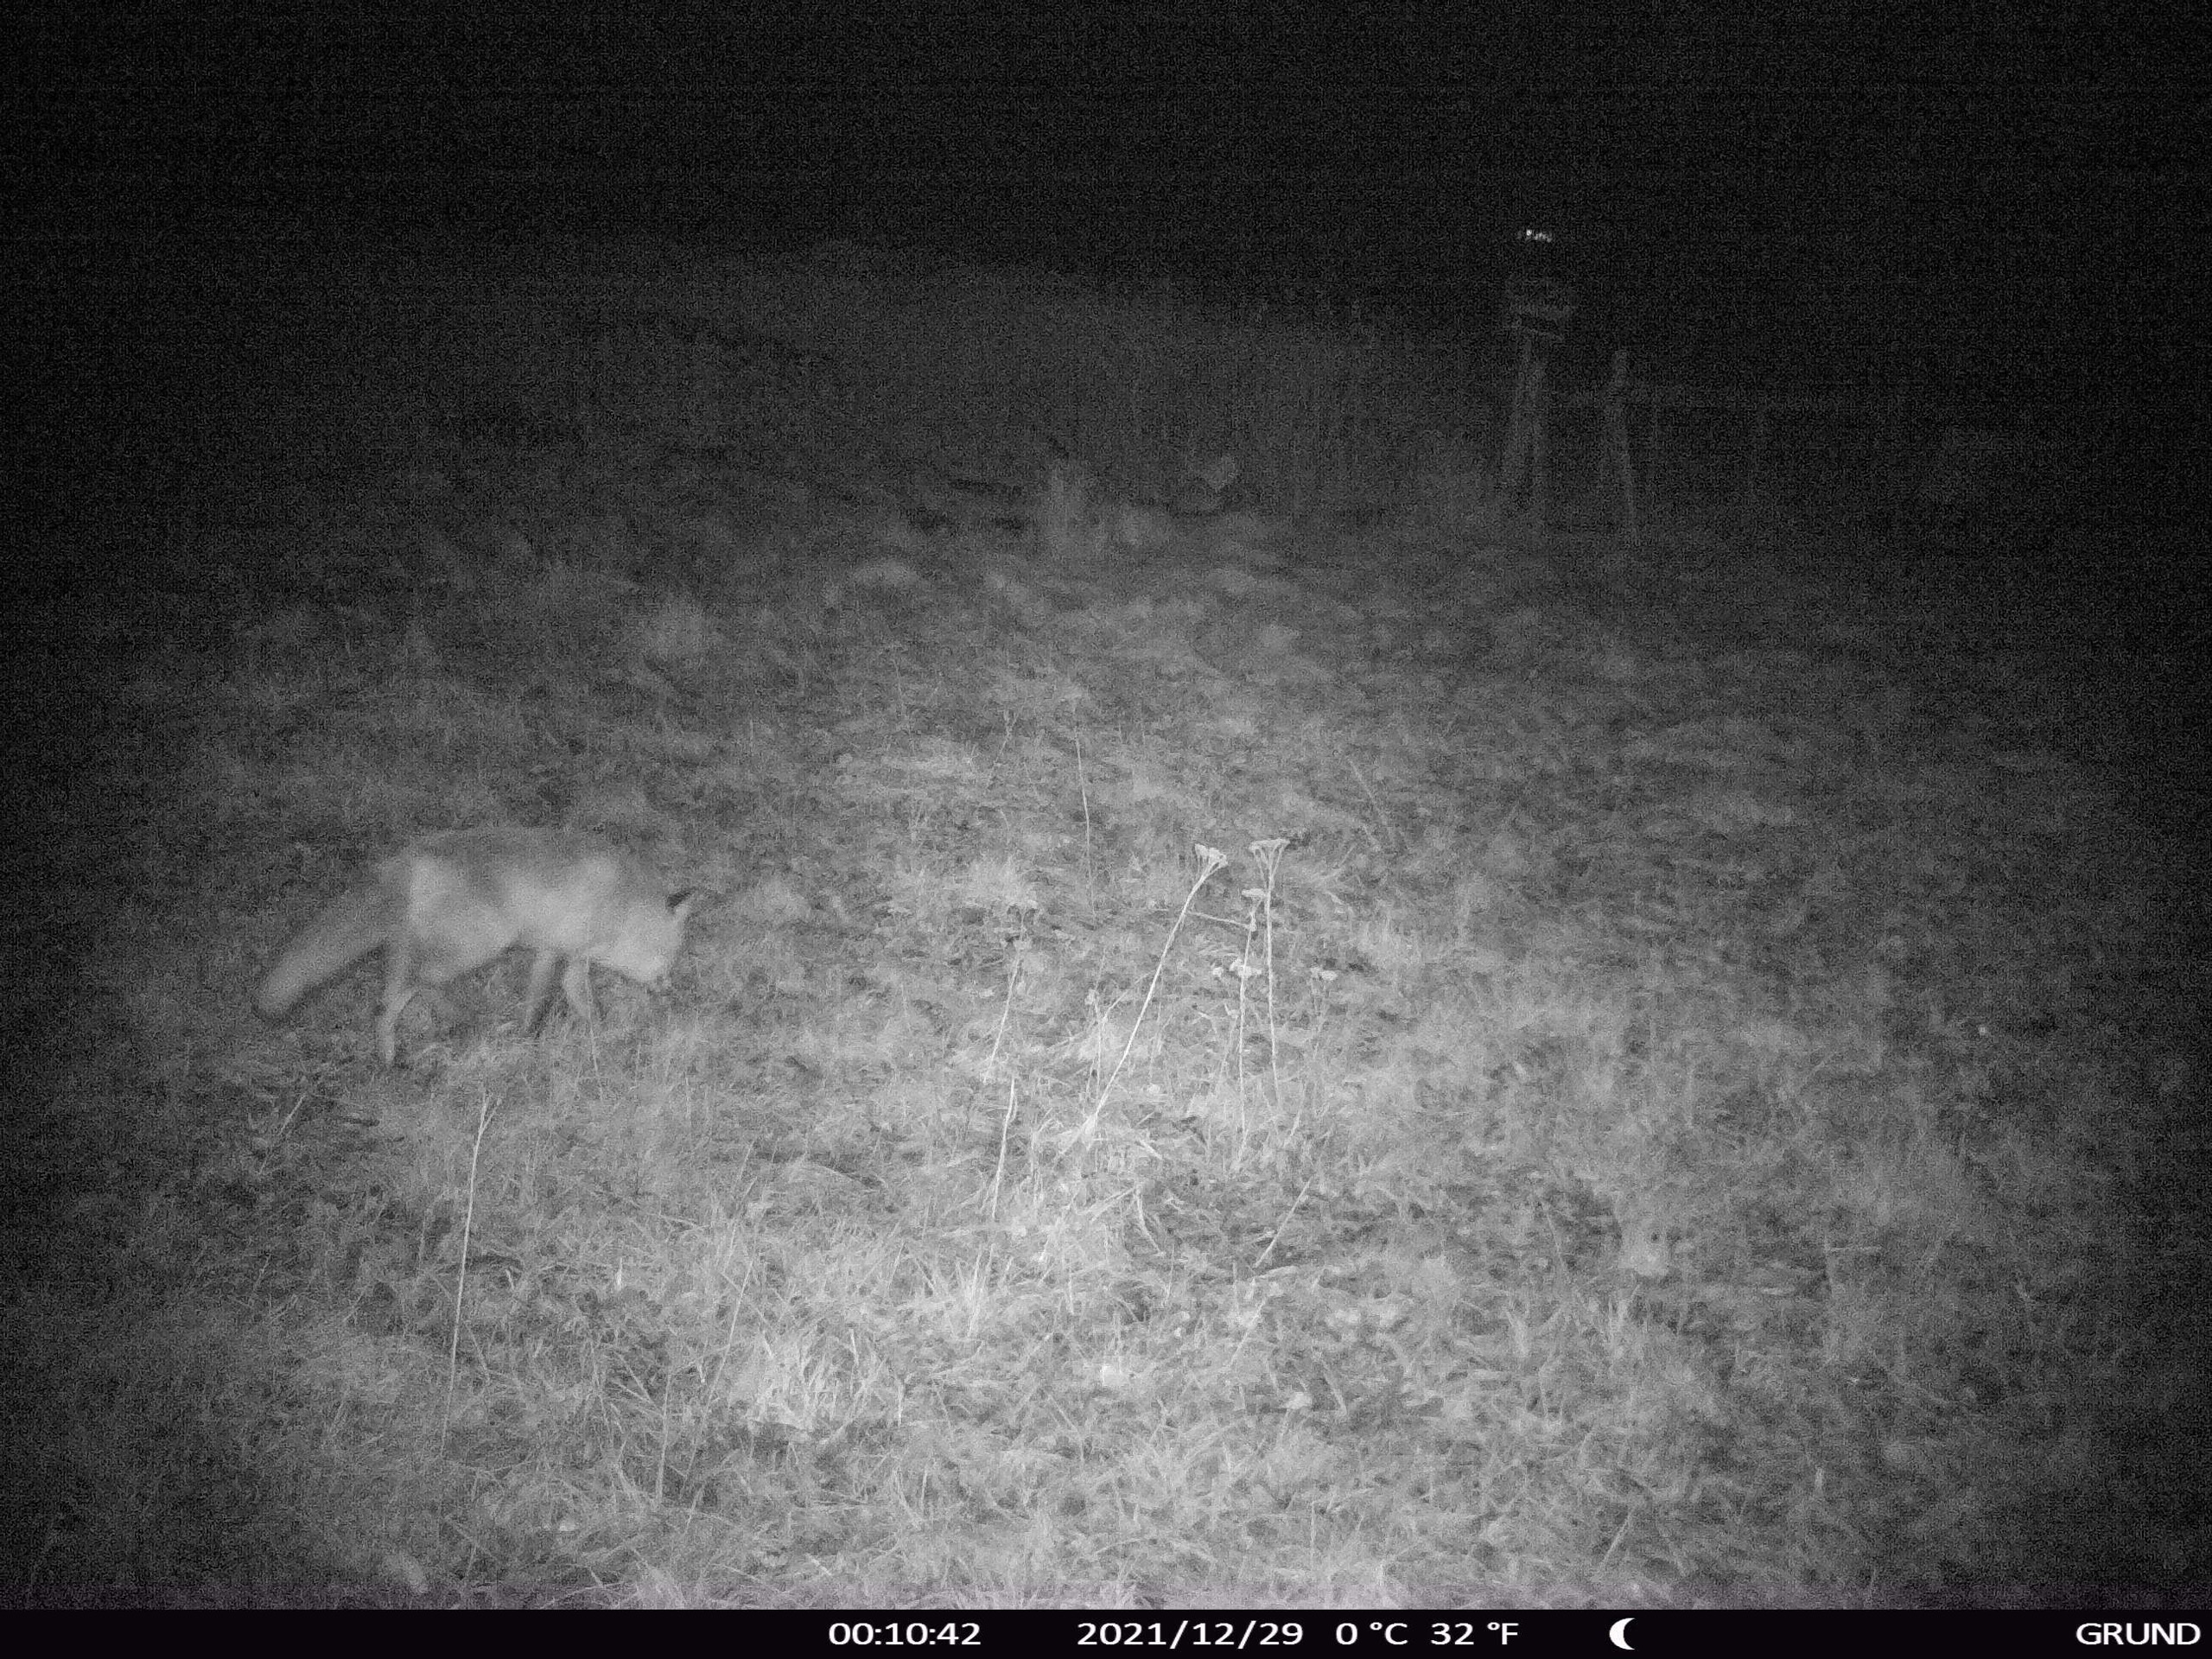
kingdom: Animalia
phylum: Chordata
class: Mammalia
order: Carnivora
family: Canidae
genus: Vulpes
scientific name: Vulpes vulpes
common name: Ræv
